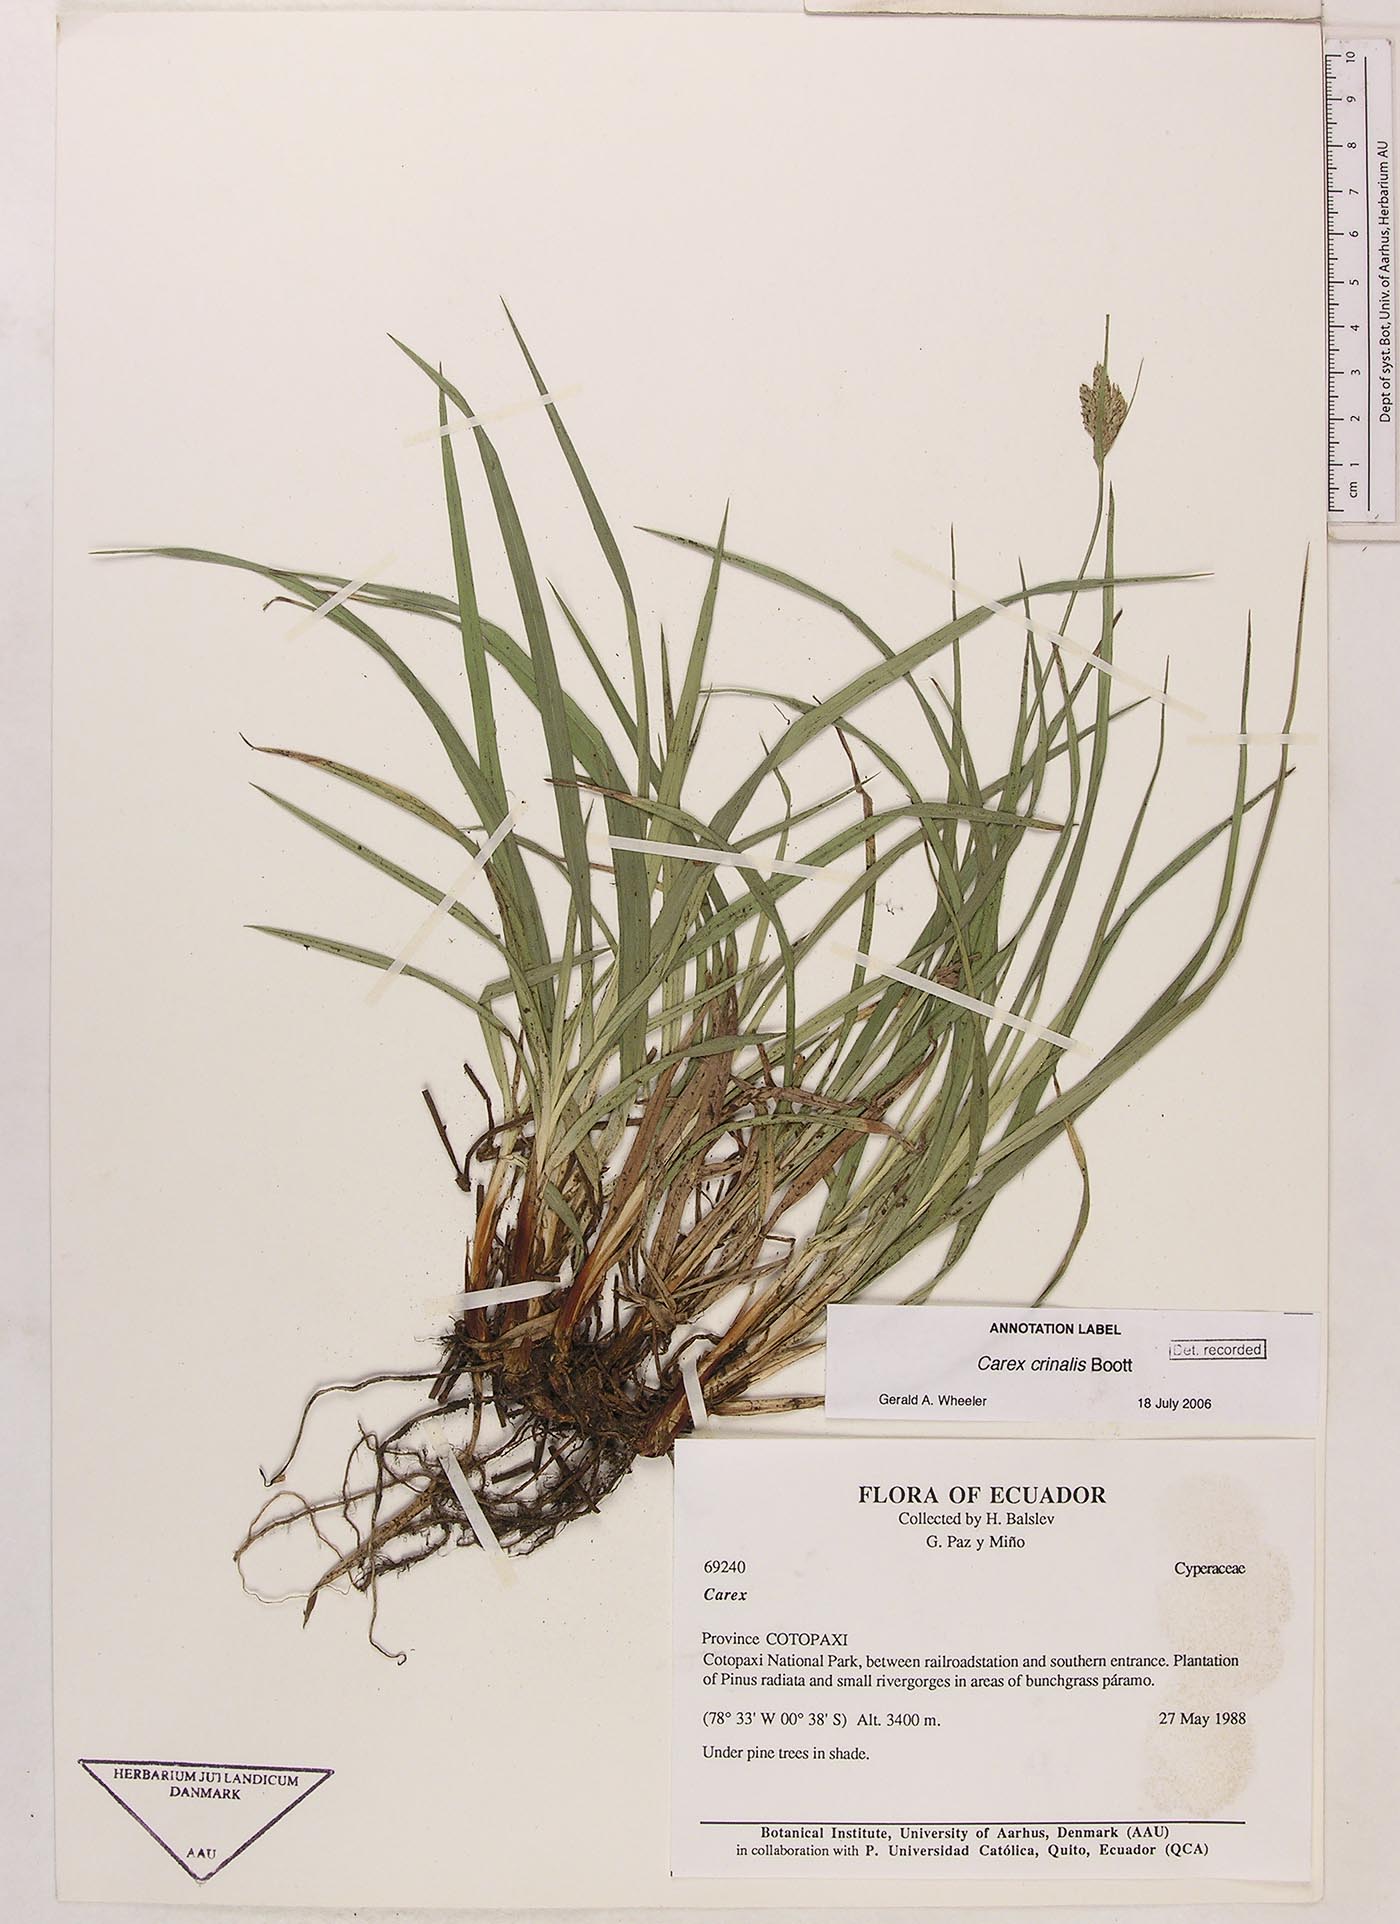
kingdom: Plantae
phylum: Tracheophyta
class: Liliopsida
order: Poales
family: Cyperaceae
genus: Carex
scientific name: Carex crinalis
